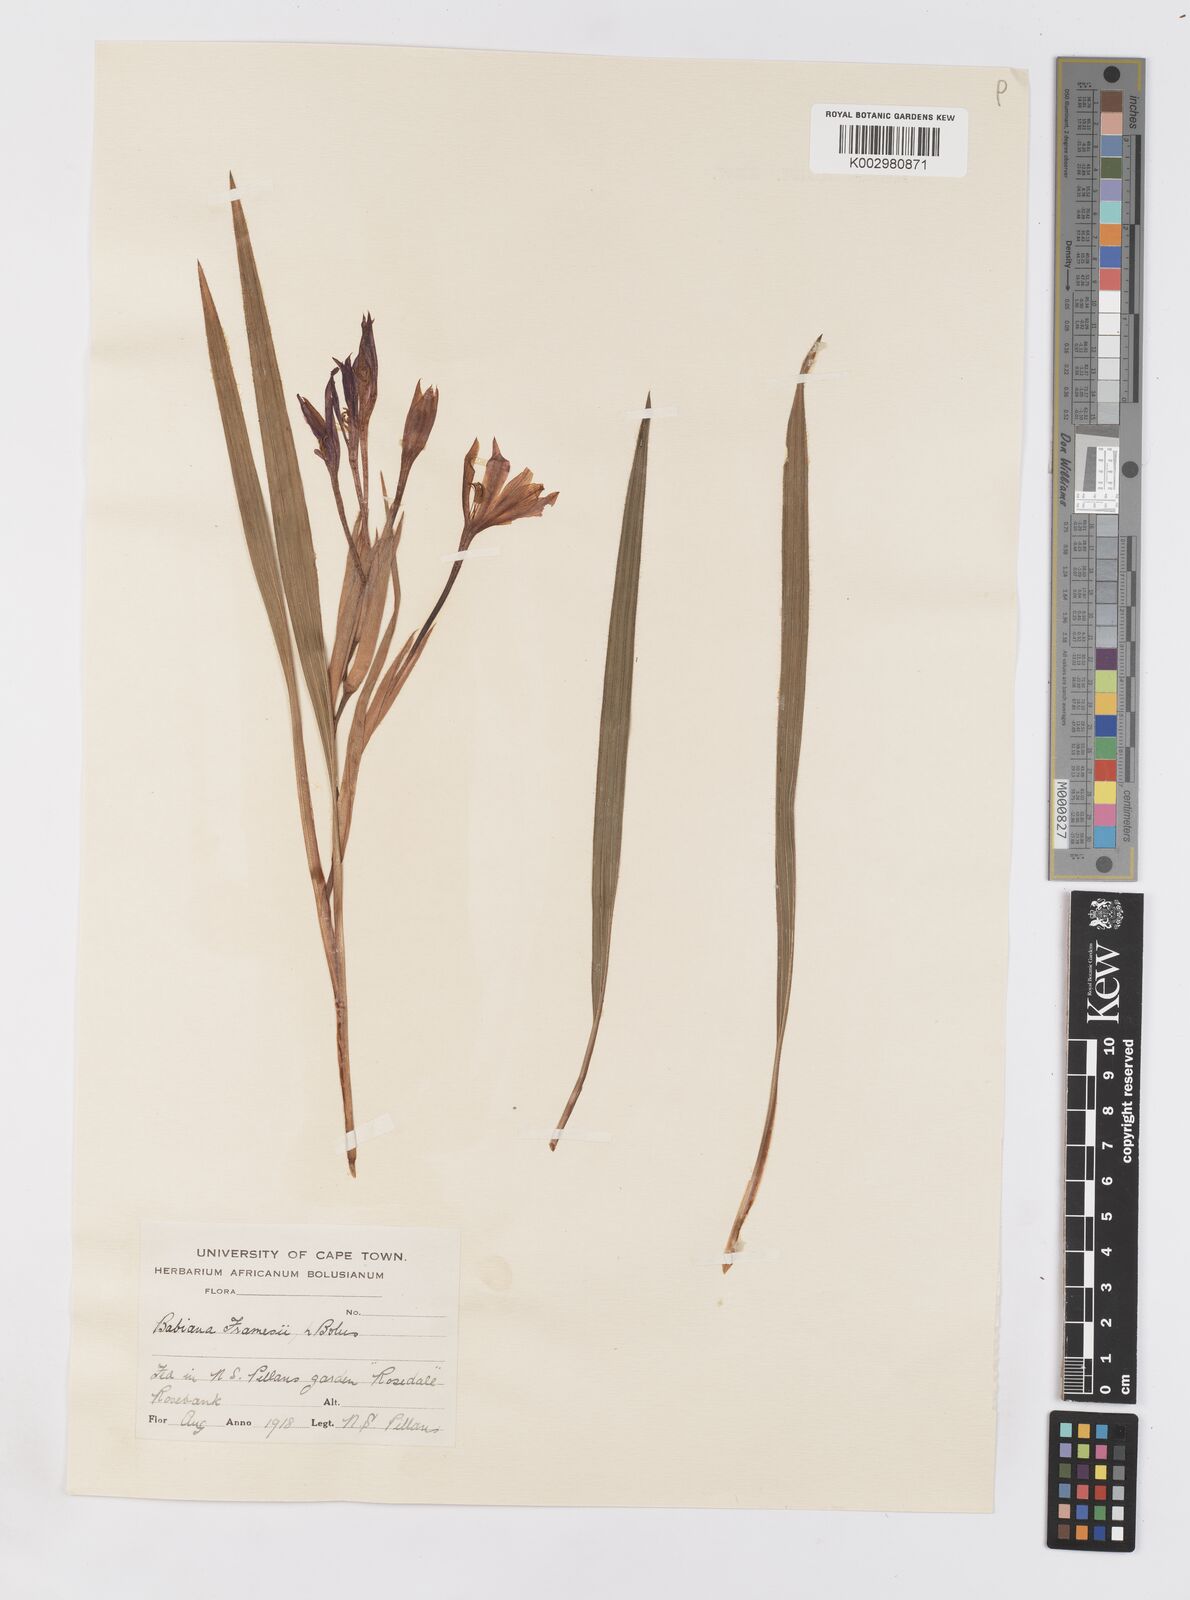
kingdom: Plantae
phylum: Tracheophyta
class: Liliopsida
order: Asparagales
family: Iridaceae
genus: Babiana
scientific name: Babiana framesii
